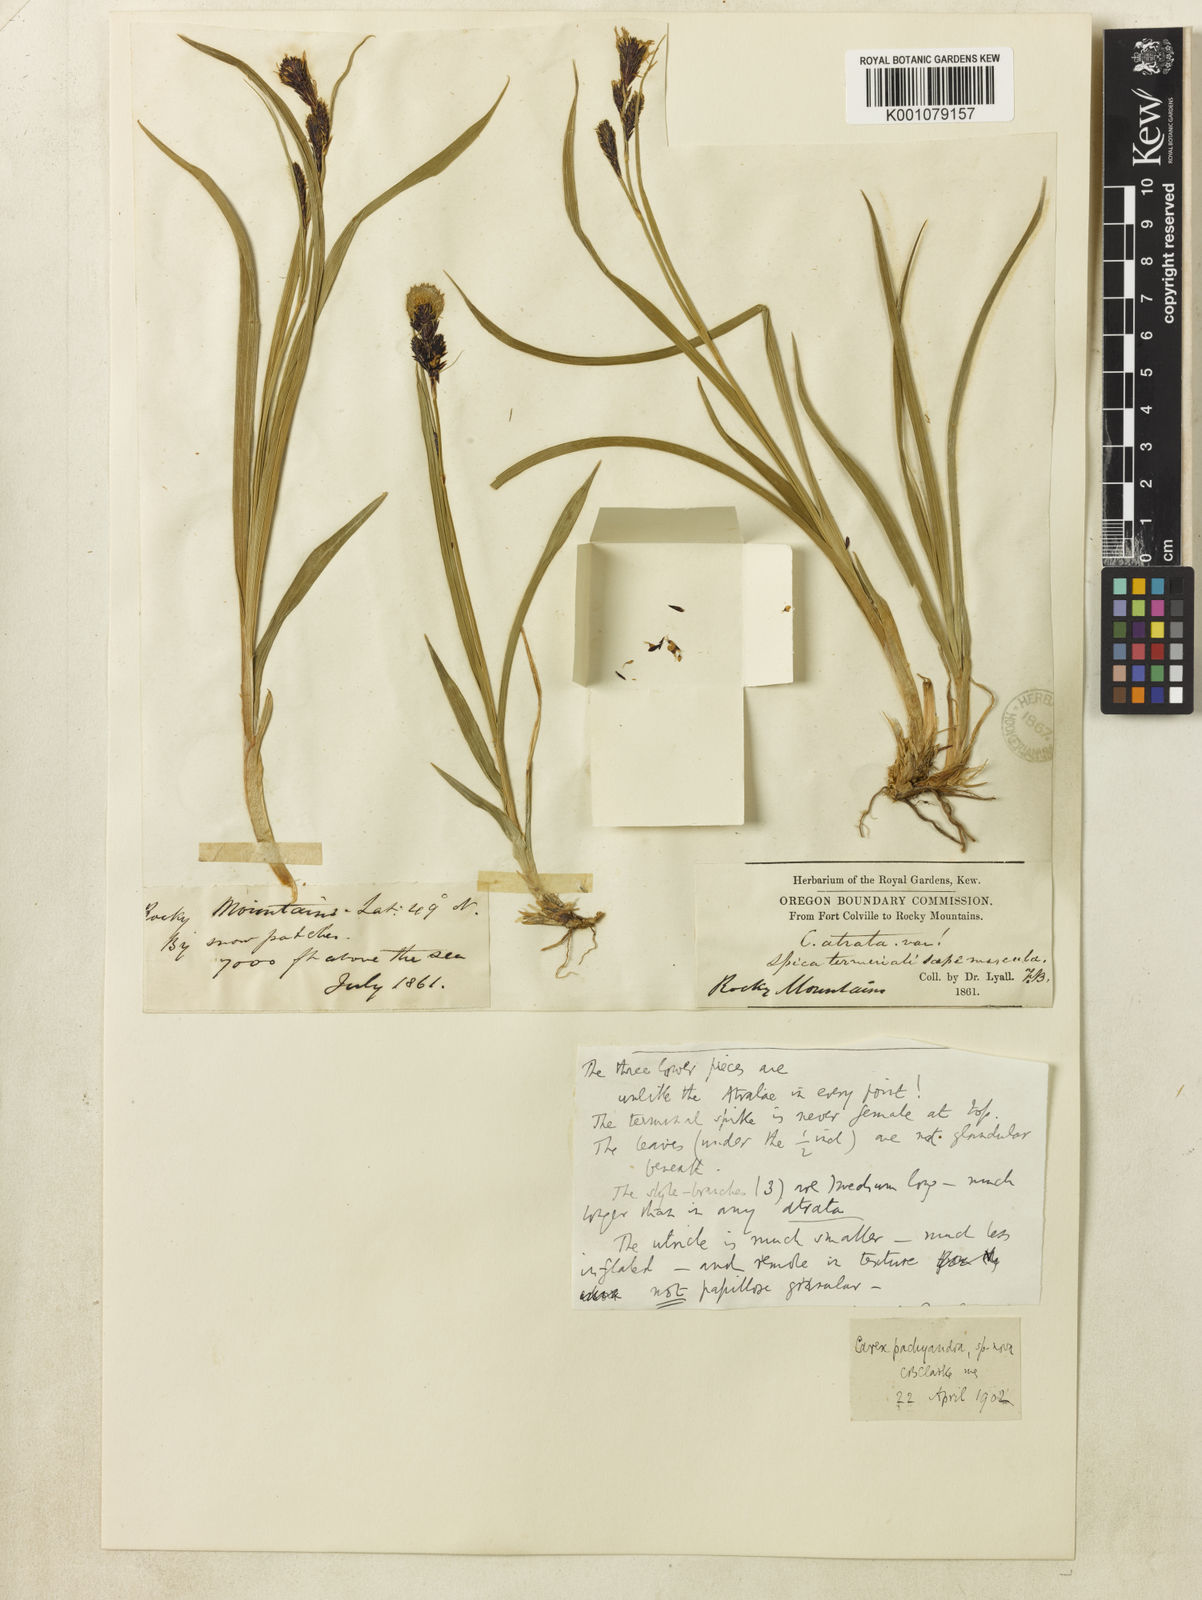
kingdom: Plantae
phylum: Tracheophyta
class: Liliopsida
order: Poales
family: Cyperaceae
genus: Carex
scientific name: Carex pachyandra
